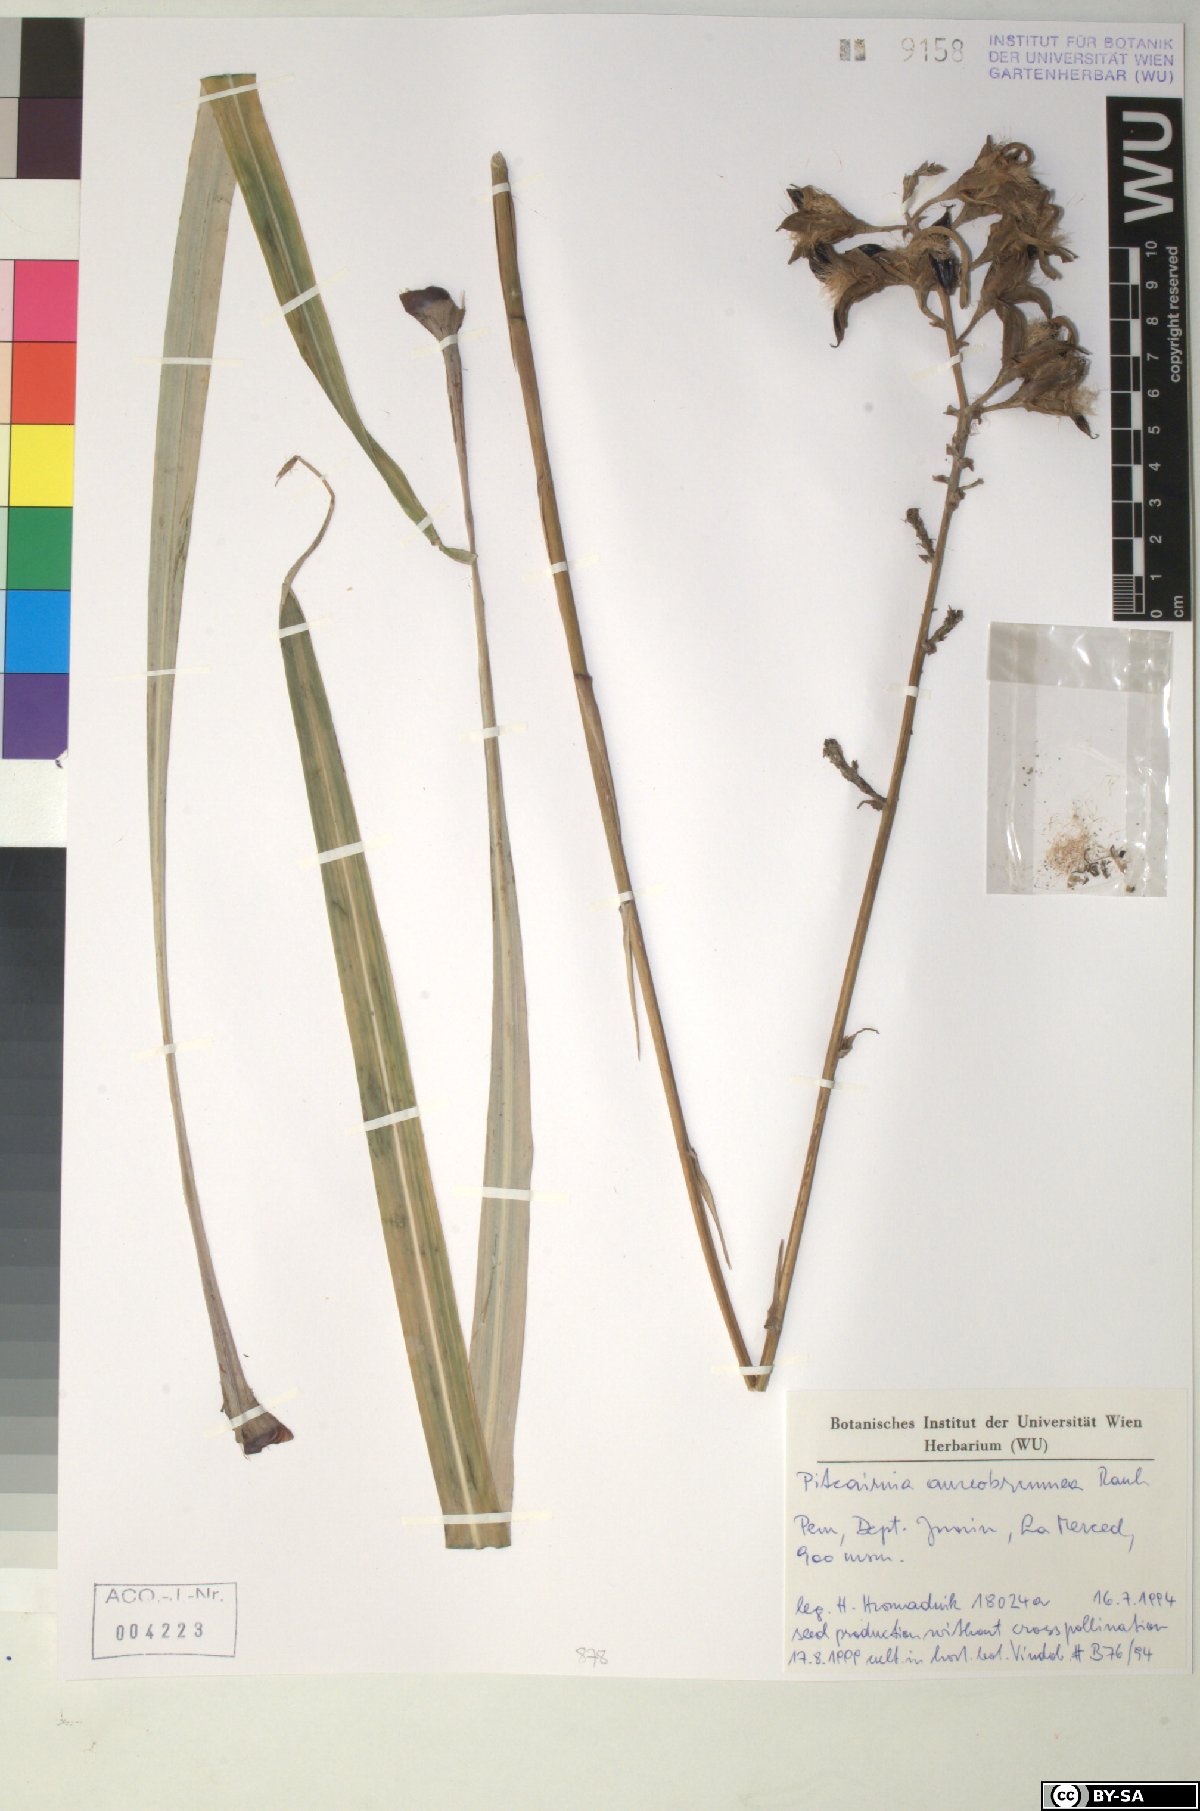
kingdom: Plantae
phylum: Tracheophyta
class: Liliopsida
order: Poales
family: Bromeliaceae
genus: Pitcairnia
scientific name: Pitcairnia aureobrunnea
